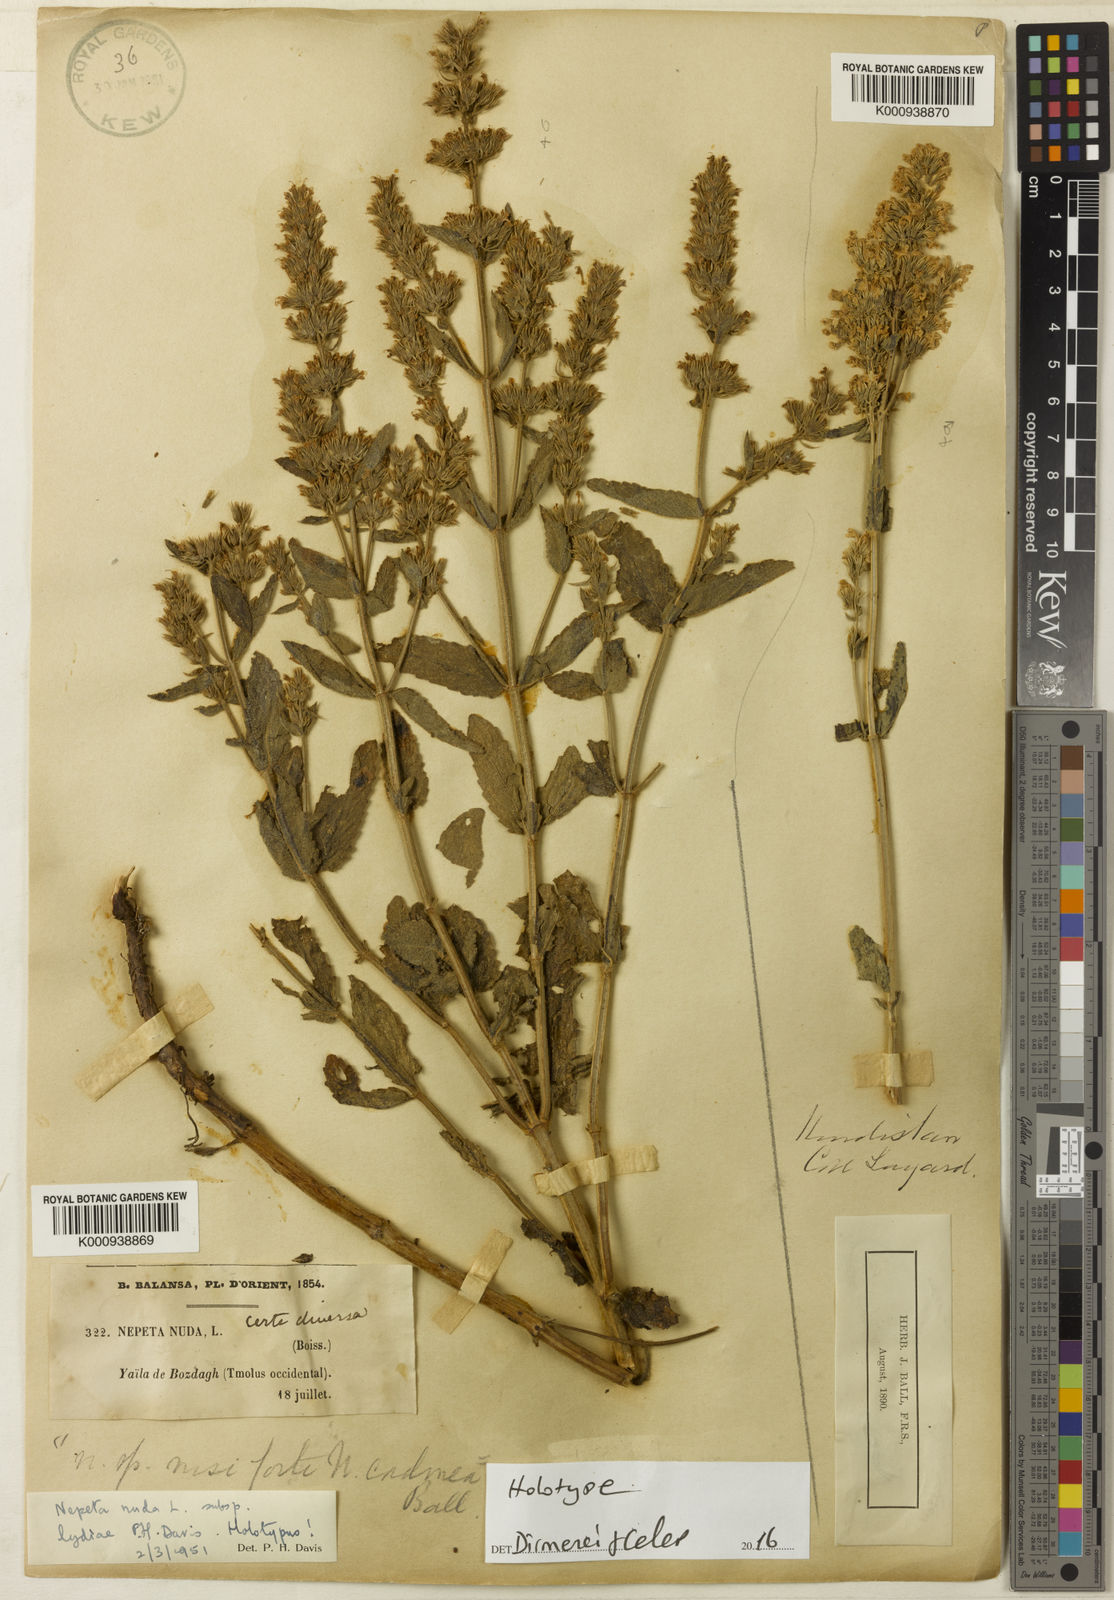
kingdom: Plantae
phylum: Tracheophyta
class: Magnoliopsida
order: Lamiales
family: Lamiaceae
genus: Nepeta
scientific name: Nepeta nuda
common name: Hairless catmint
